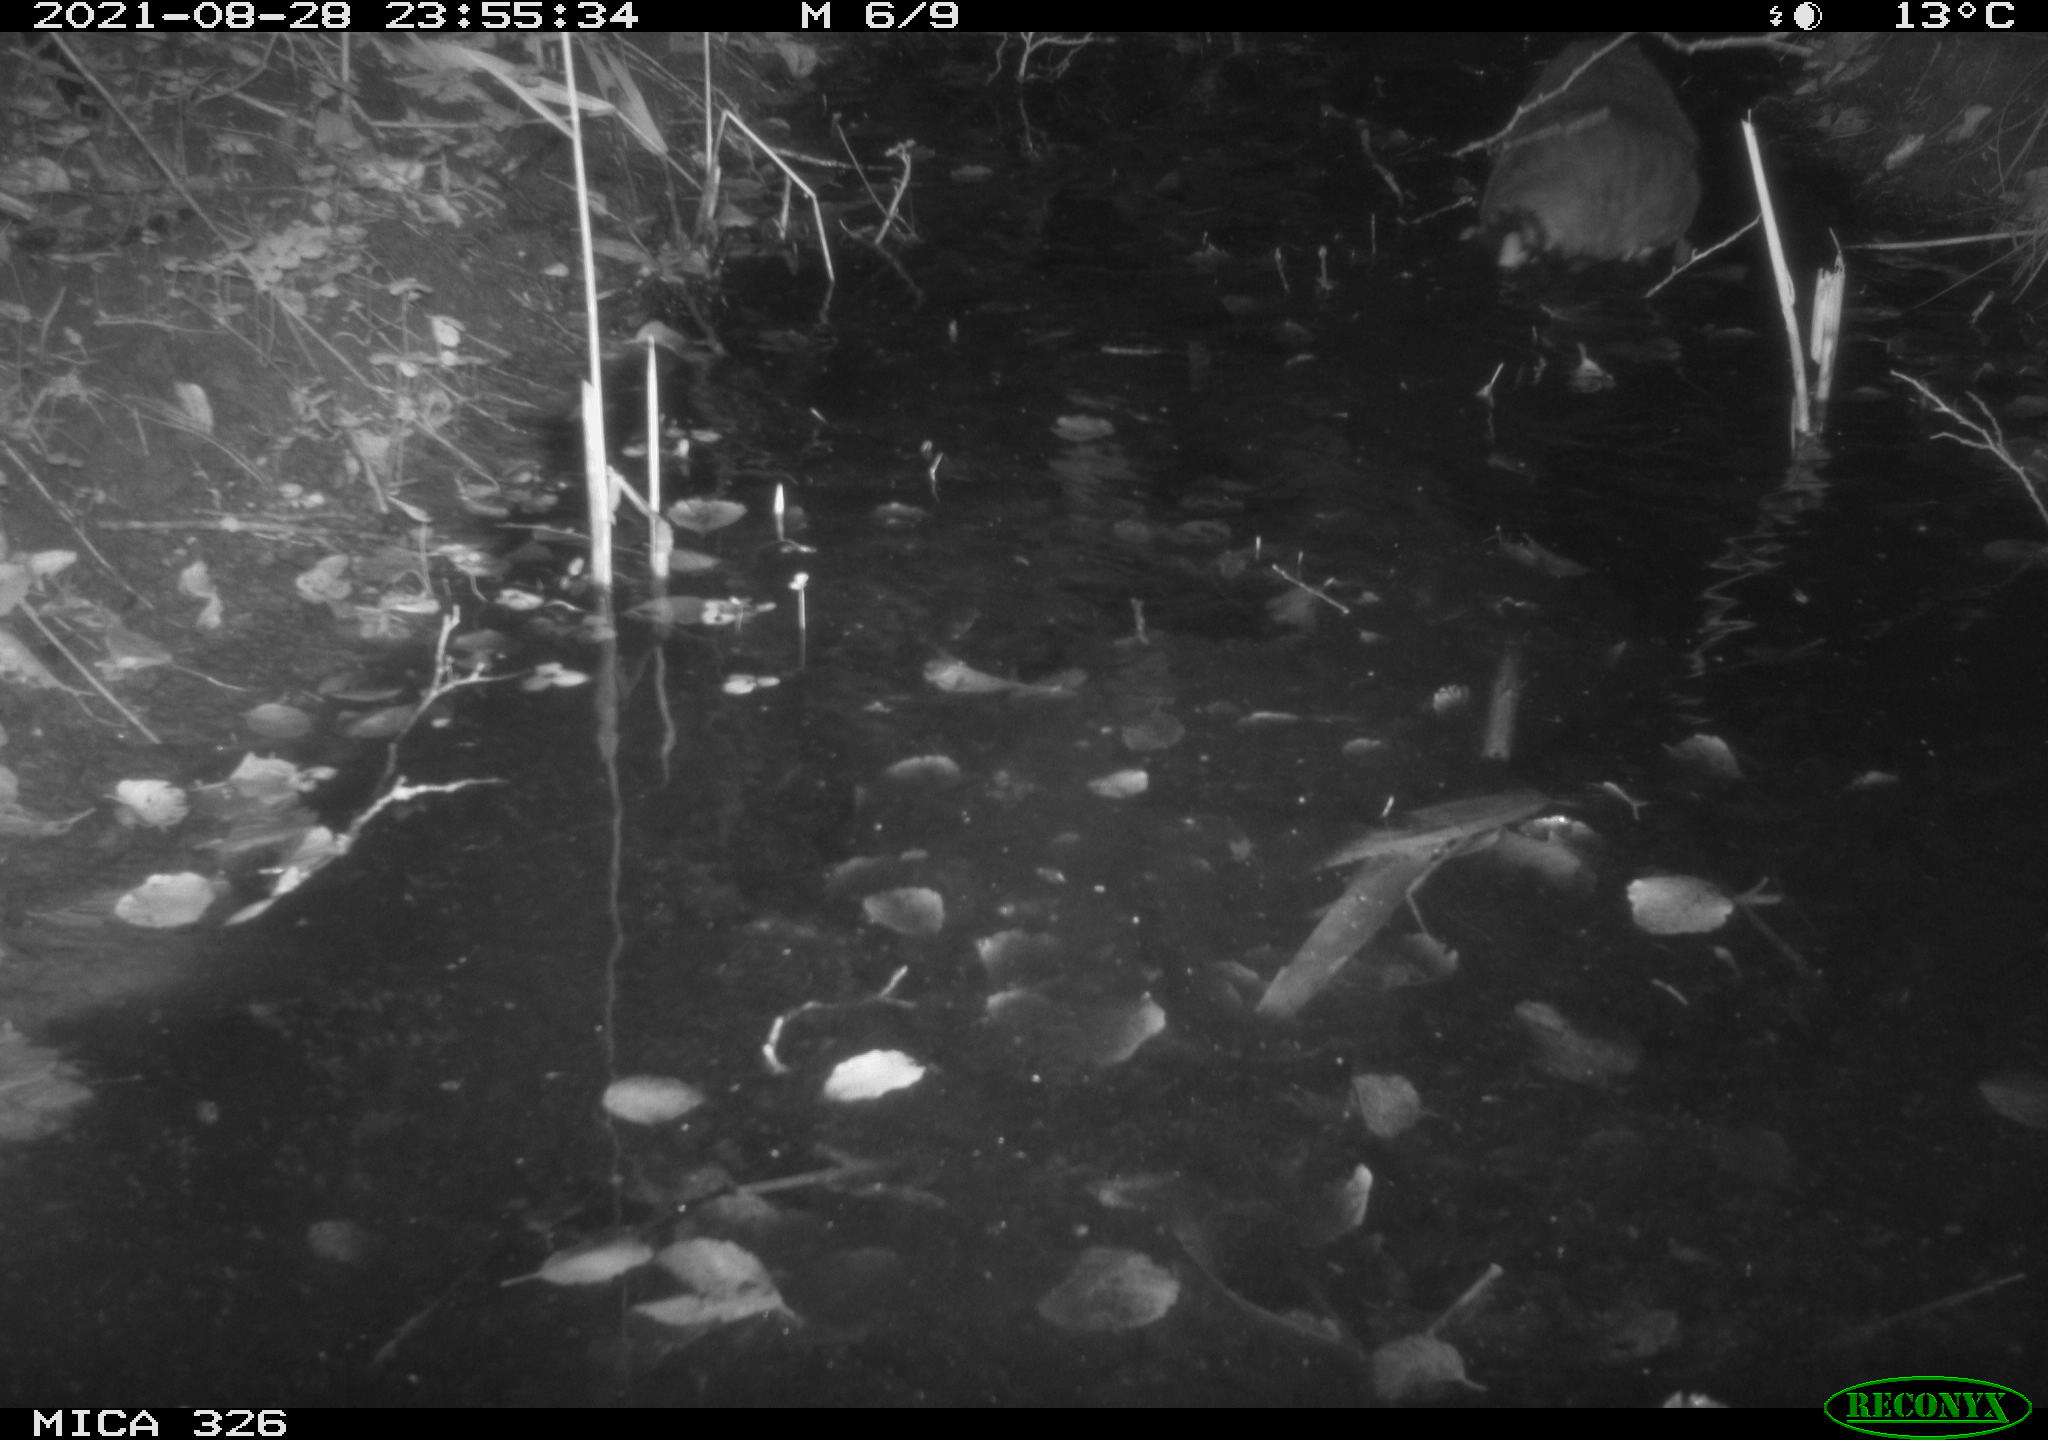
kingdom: Animalia
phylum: Chordata
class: Mammalia
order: Rodentia
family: Myocastoridae
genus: Myocastor
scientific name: Myocastor coypus
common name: Coypu
